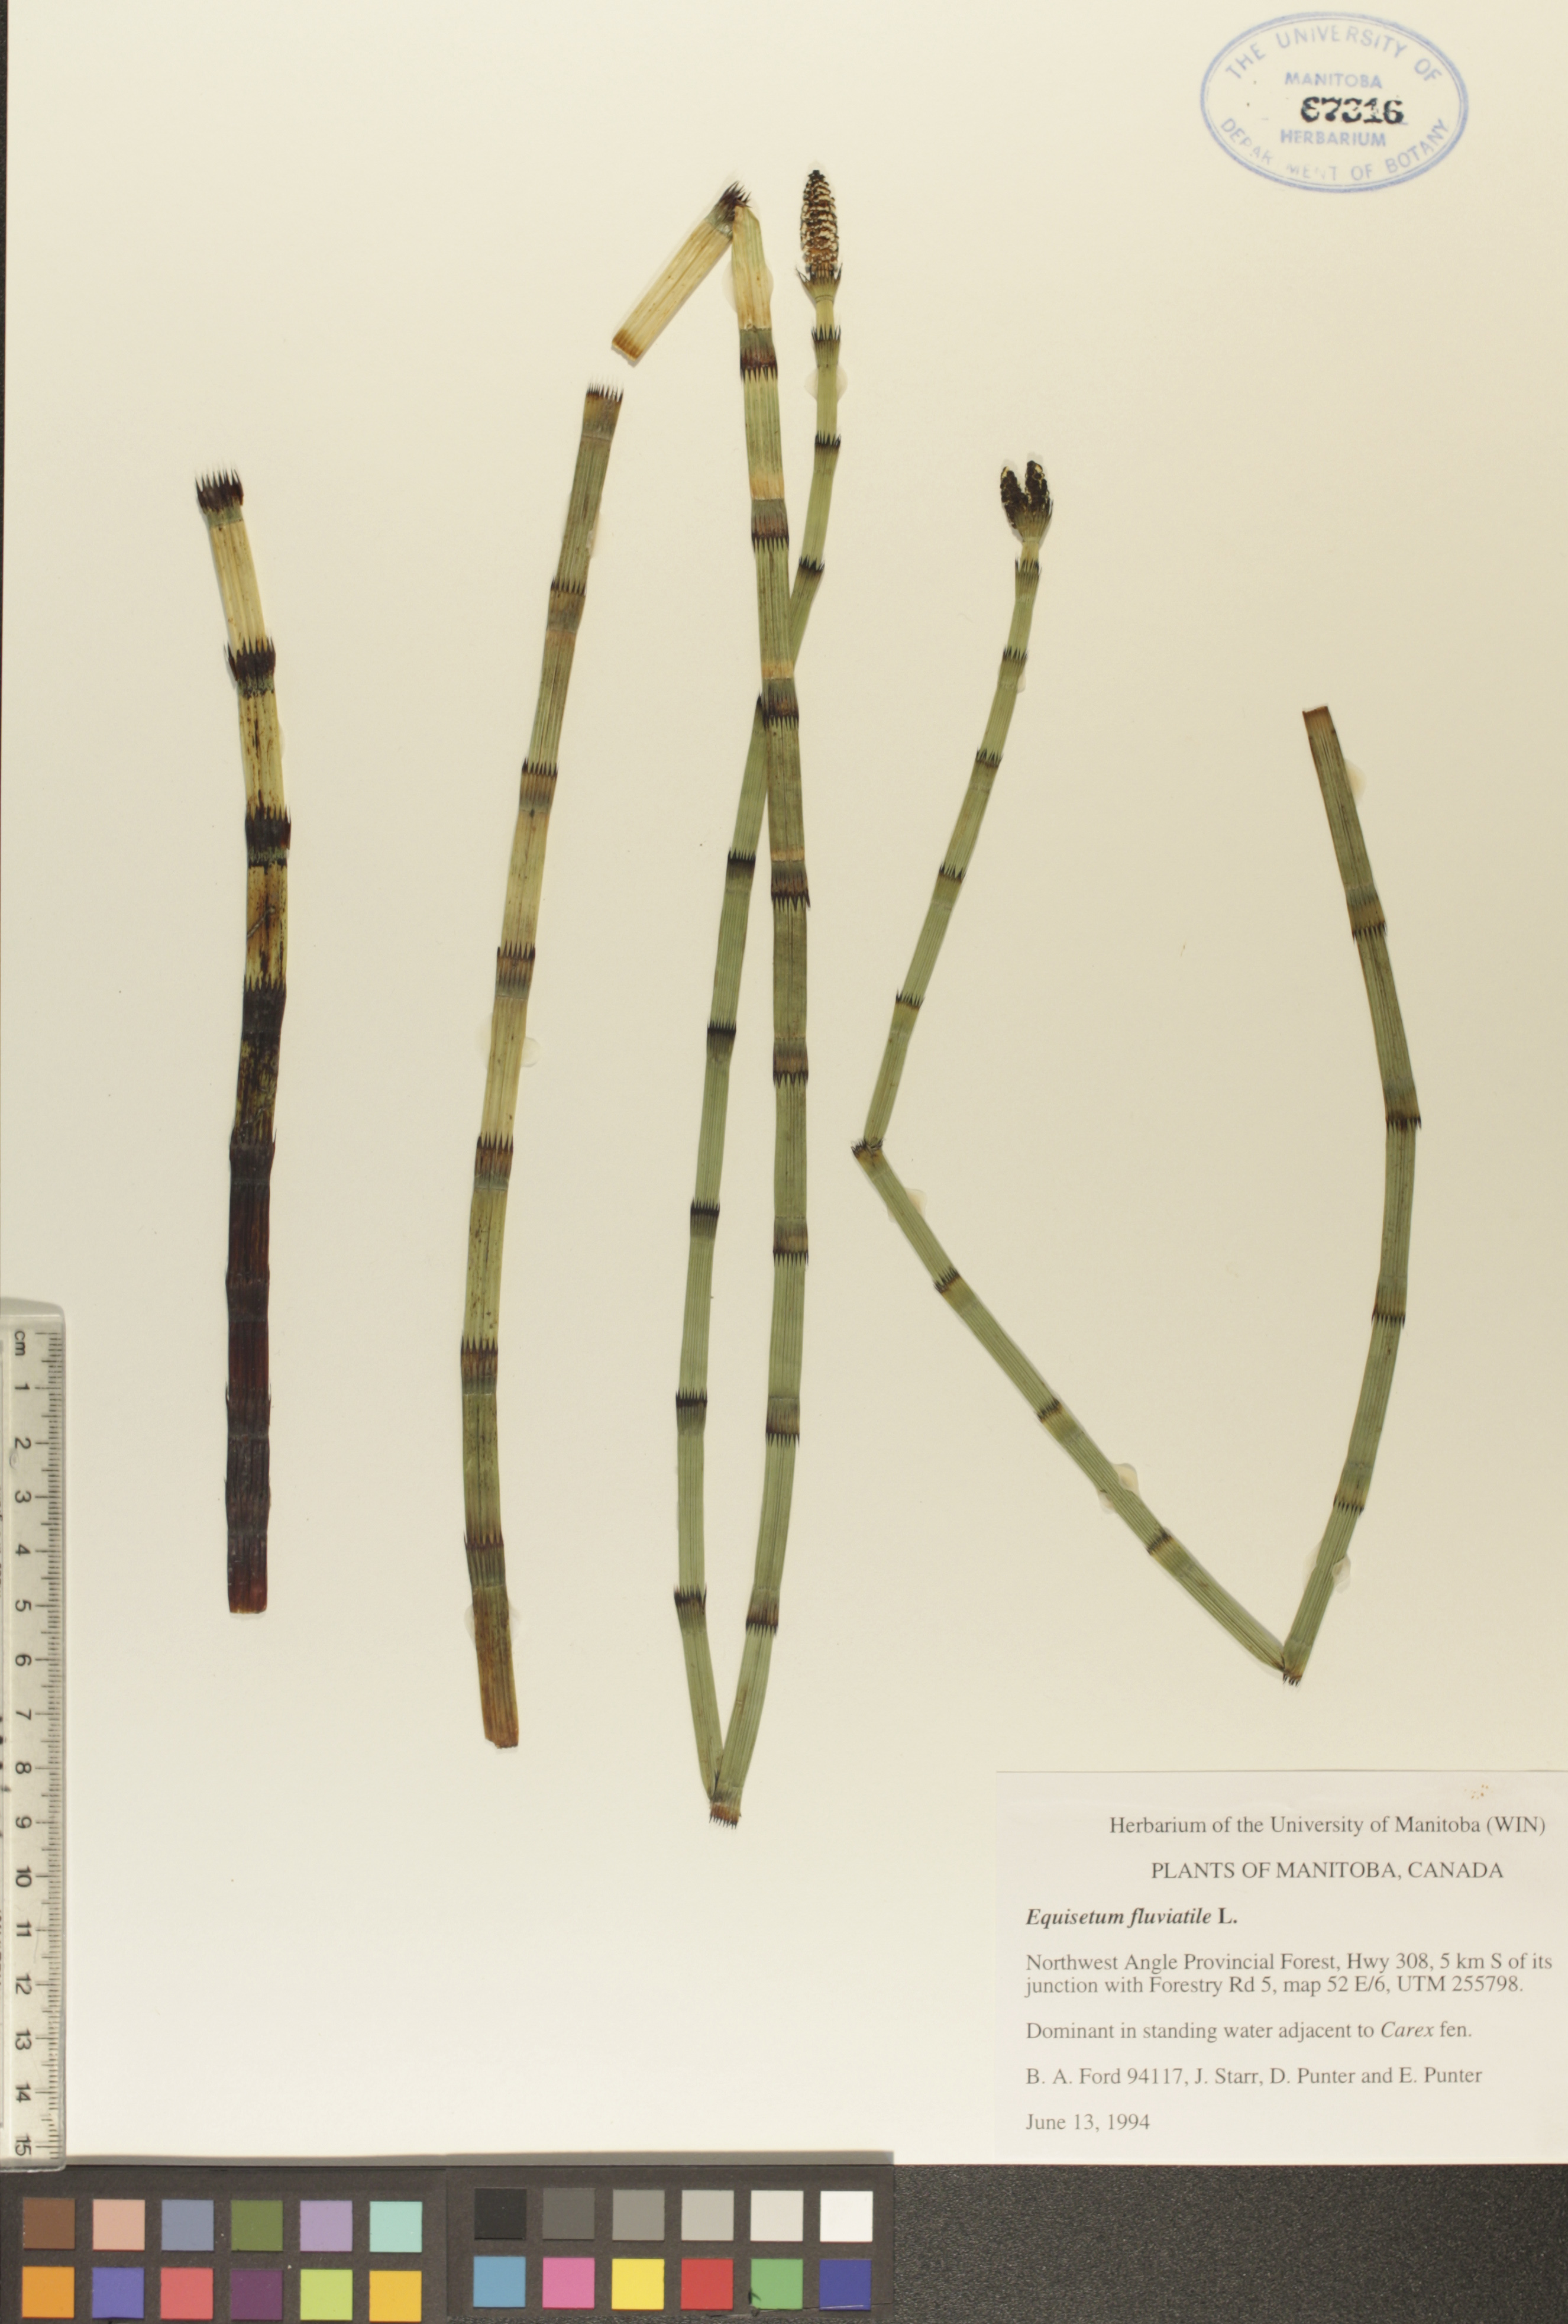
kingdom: Plantae
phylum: Tracheophyta
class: Polypodiopsida
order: Equisetales
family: Equisetaceae
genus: Equisetum
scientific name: Equisetum fluviatile
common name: Water horsetail
